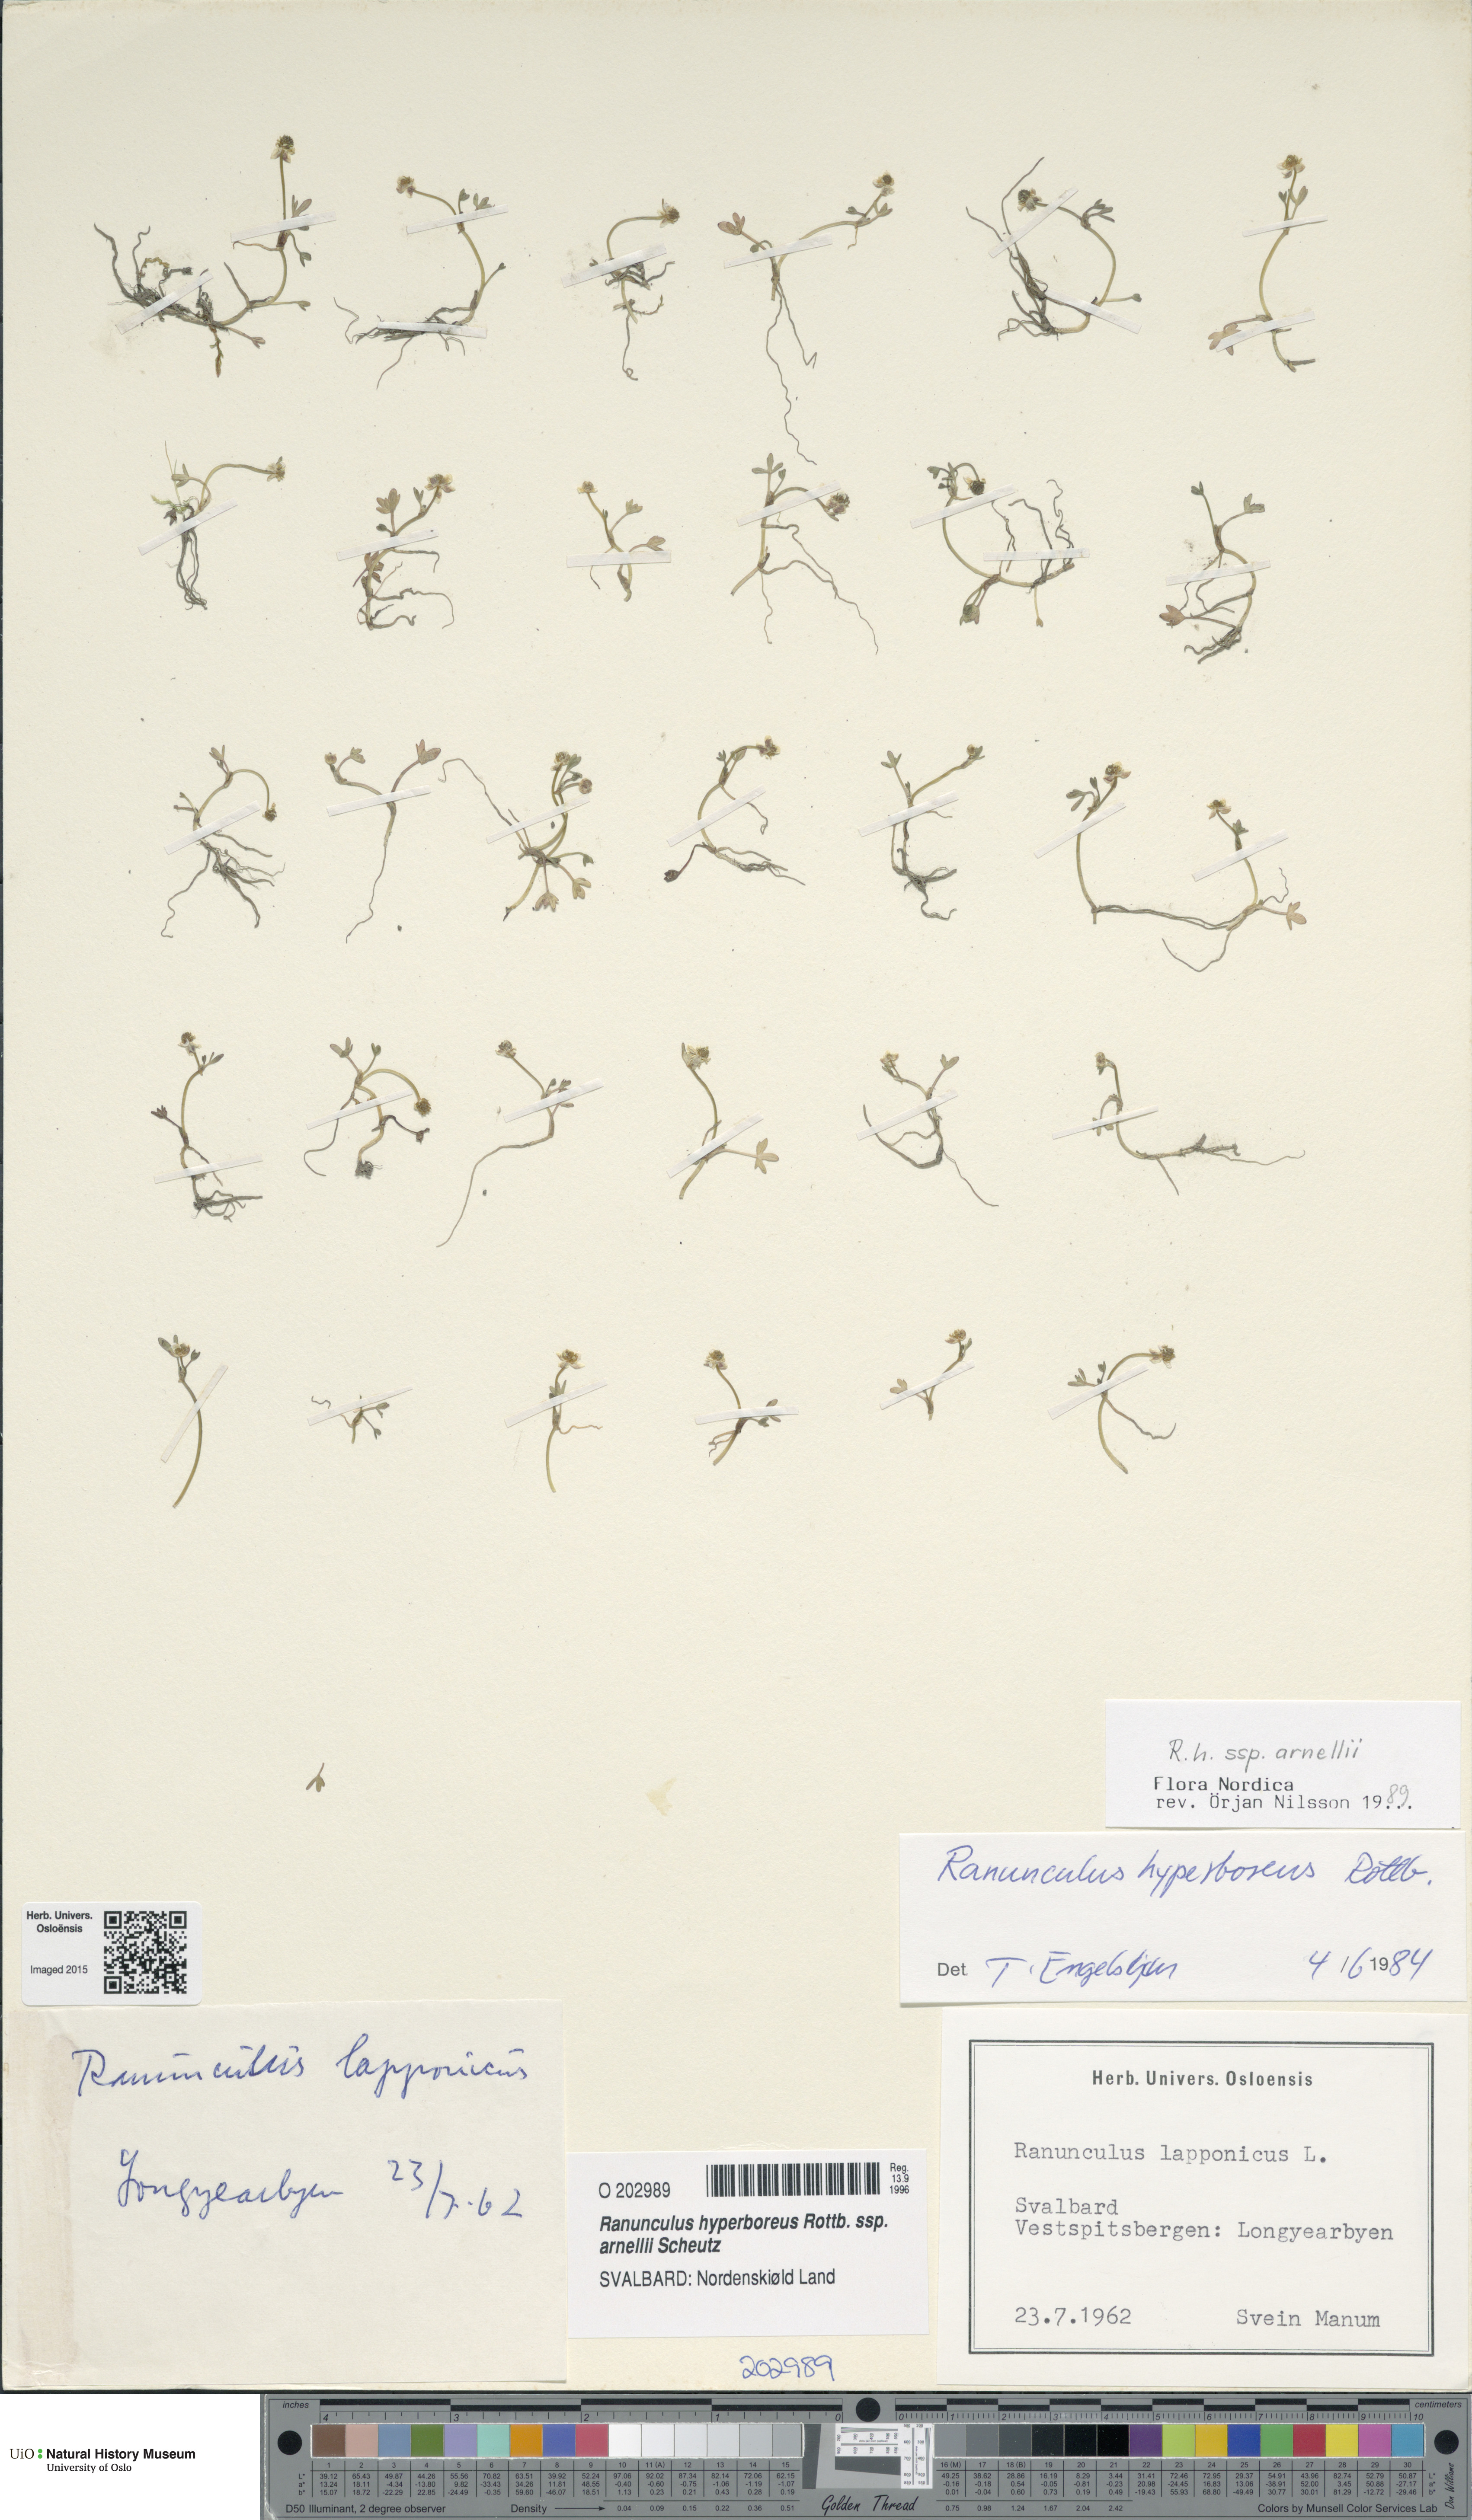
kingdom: Plantae
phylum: Tracheophyta
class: Magnoliopsida
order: Ranunculales
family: Ranunculaceae
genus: Ranunculus
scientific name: Ranunculus hyperboreus
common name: Arctic buttercup
